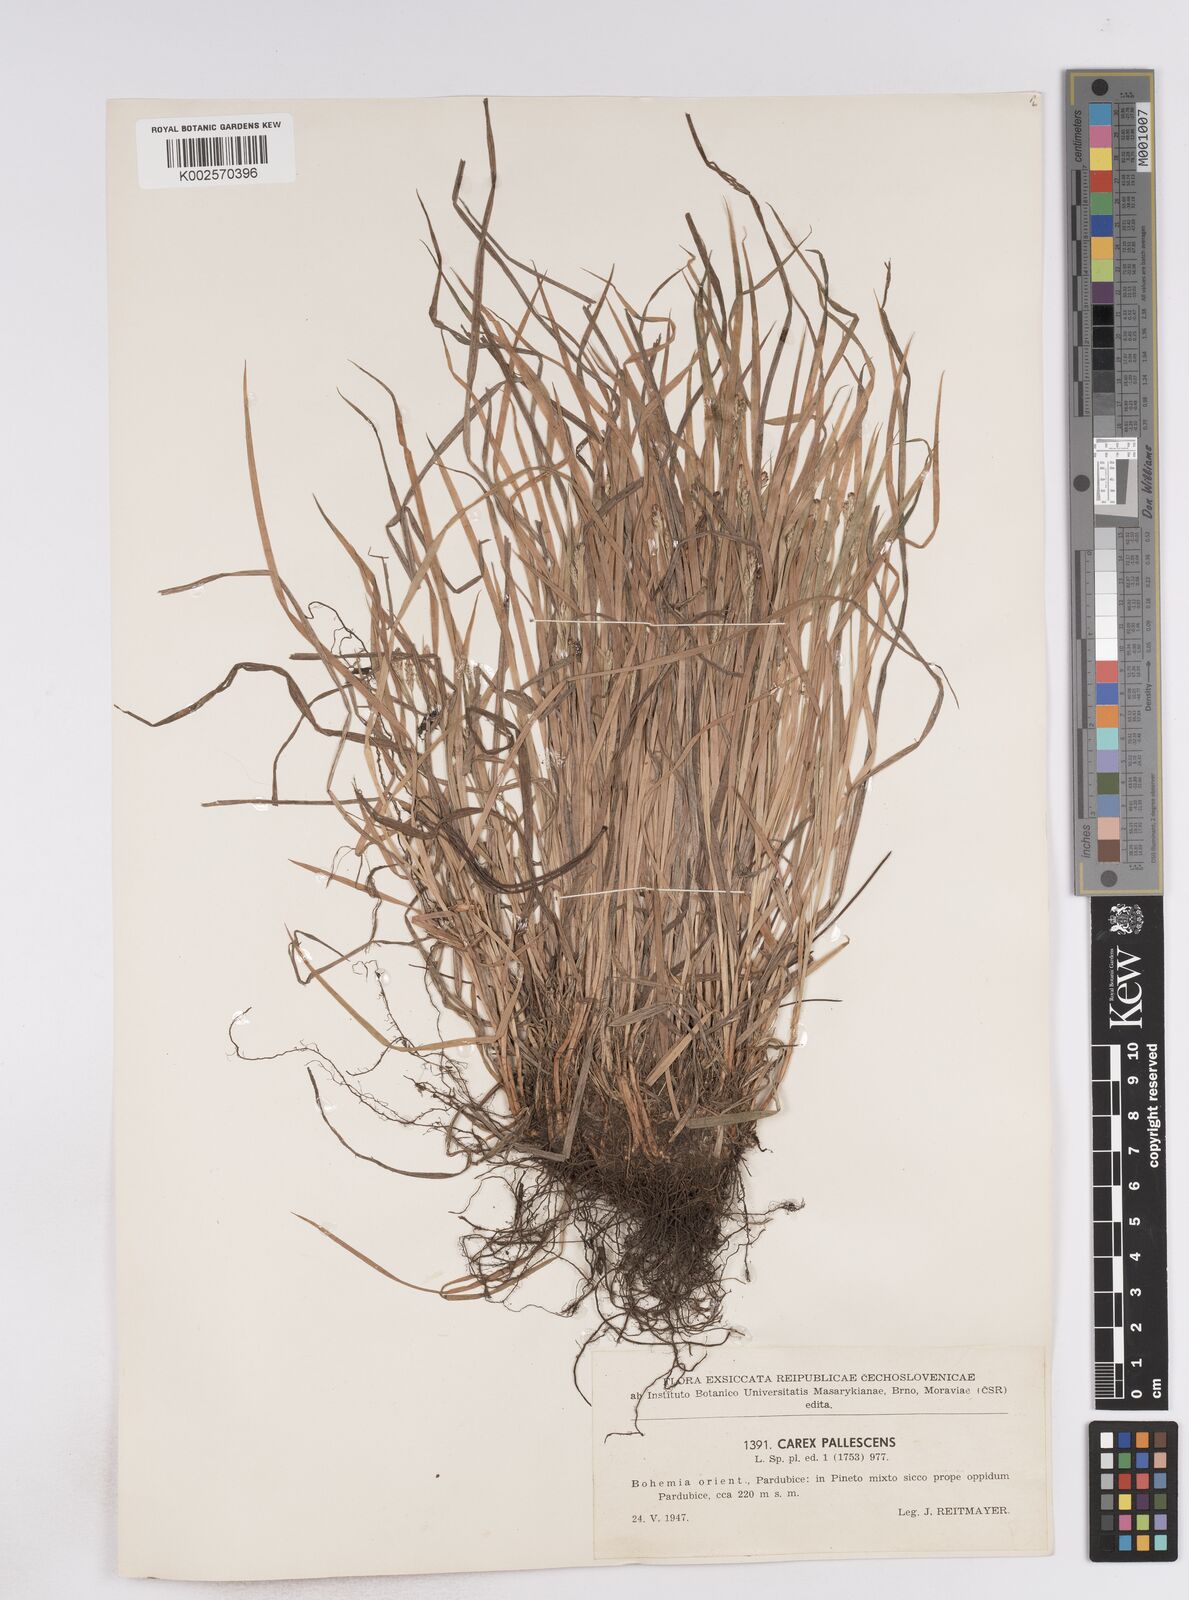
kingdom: Plantae
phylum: Tracheophyta
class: Liliopsida
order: Poales
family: Cyperaceae
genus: Carex
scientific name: Carex pallescens
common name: Pale sedge
